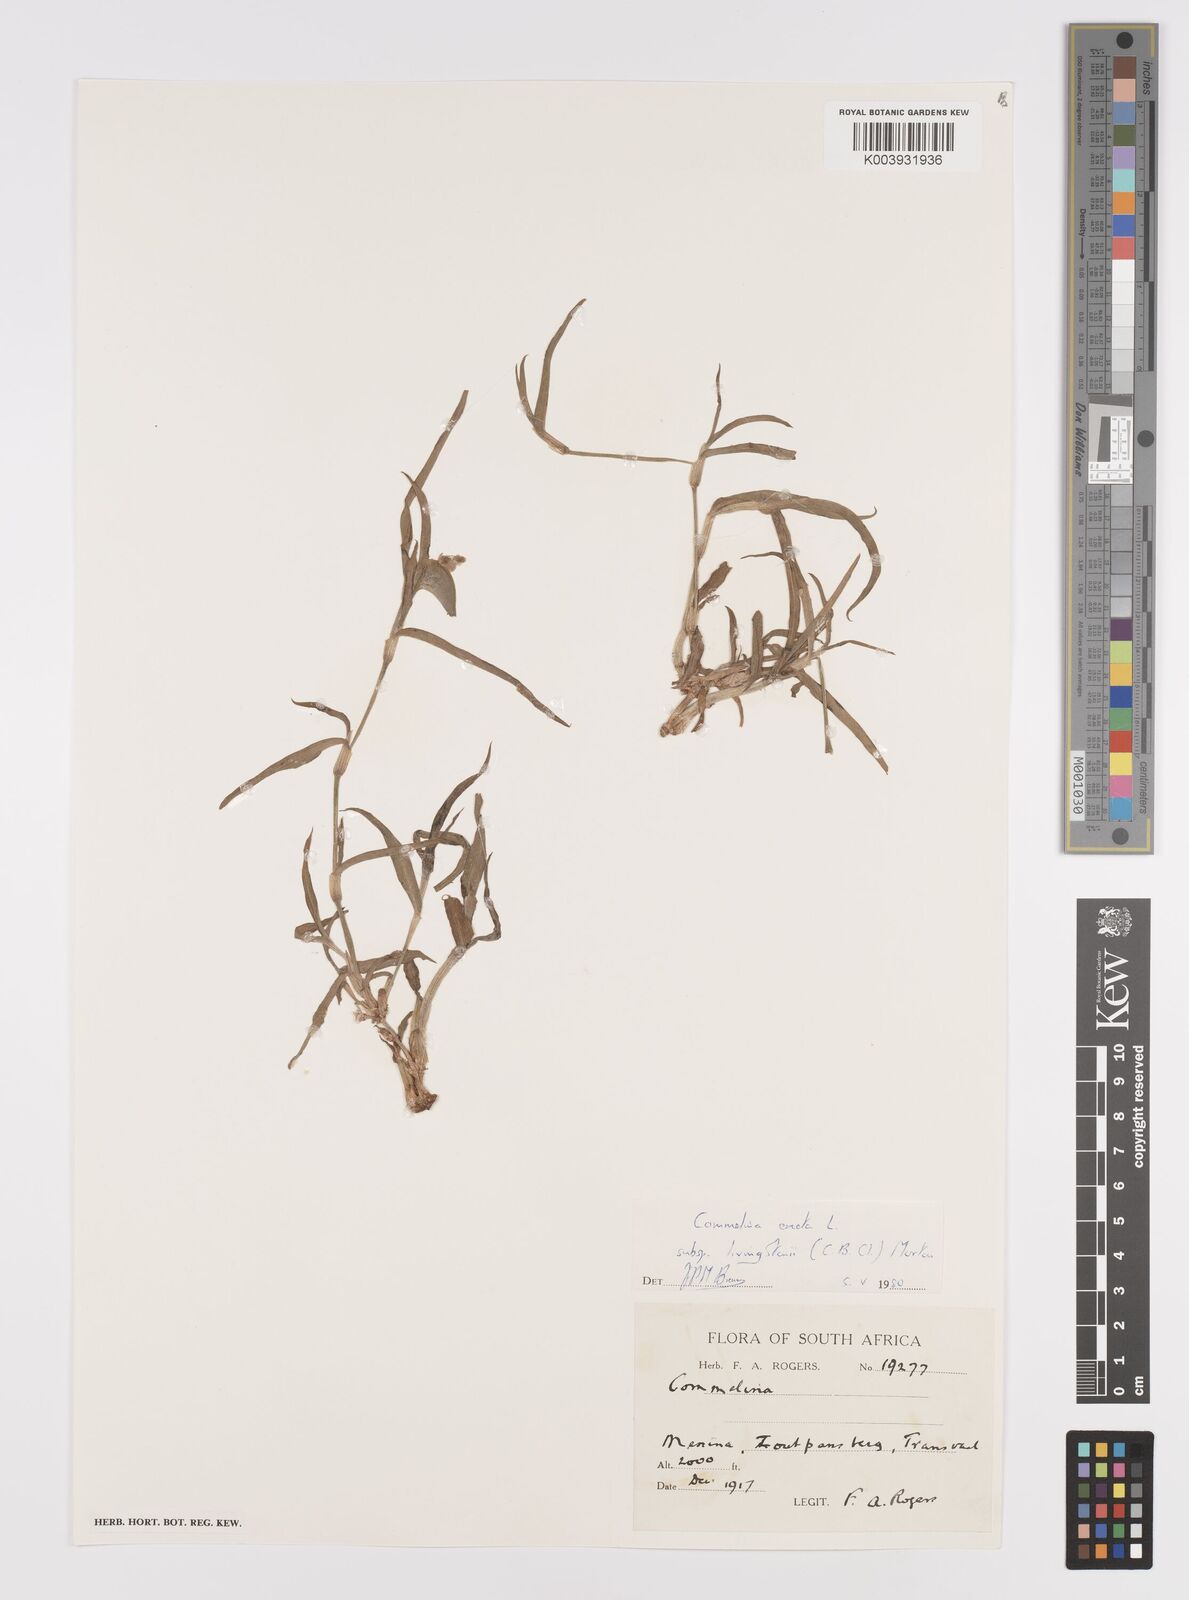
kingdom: Plantae
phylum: Tracheophyta
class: Liliopsida
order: Commelinales
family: Commelinaceae
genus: Commelina
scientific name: Commelina erecta
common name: Blousel blommetjie
